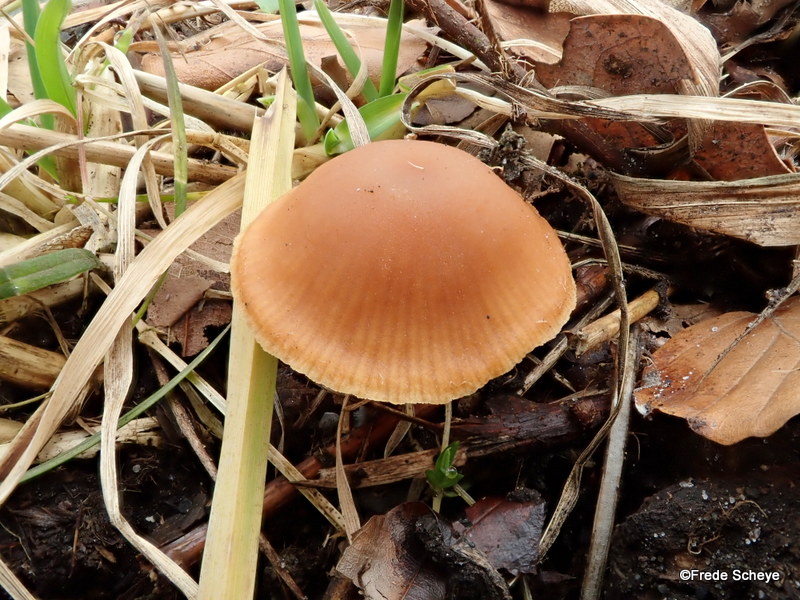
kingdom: Fungi
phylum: Basidiomycota
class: Agaricomycetes
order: Agaricales
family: Tubariaceae
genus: Tubaria
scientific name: Tubaria furfuracea
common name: kliddet fnughat
